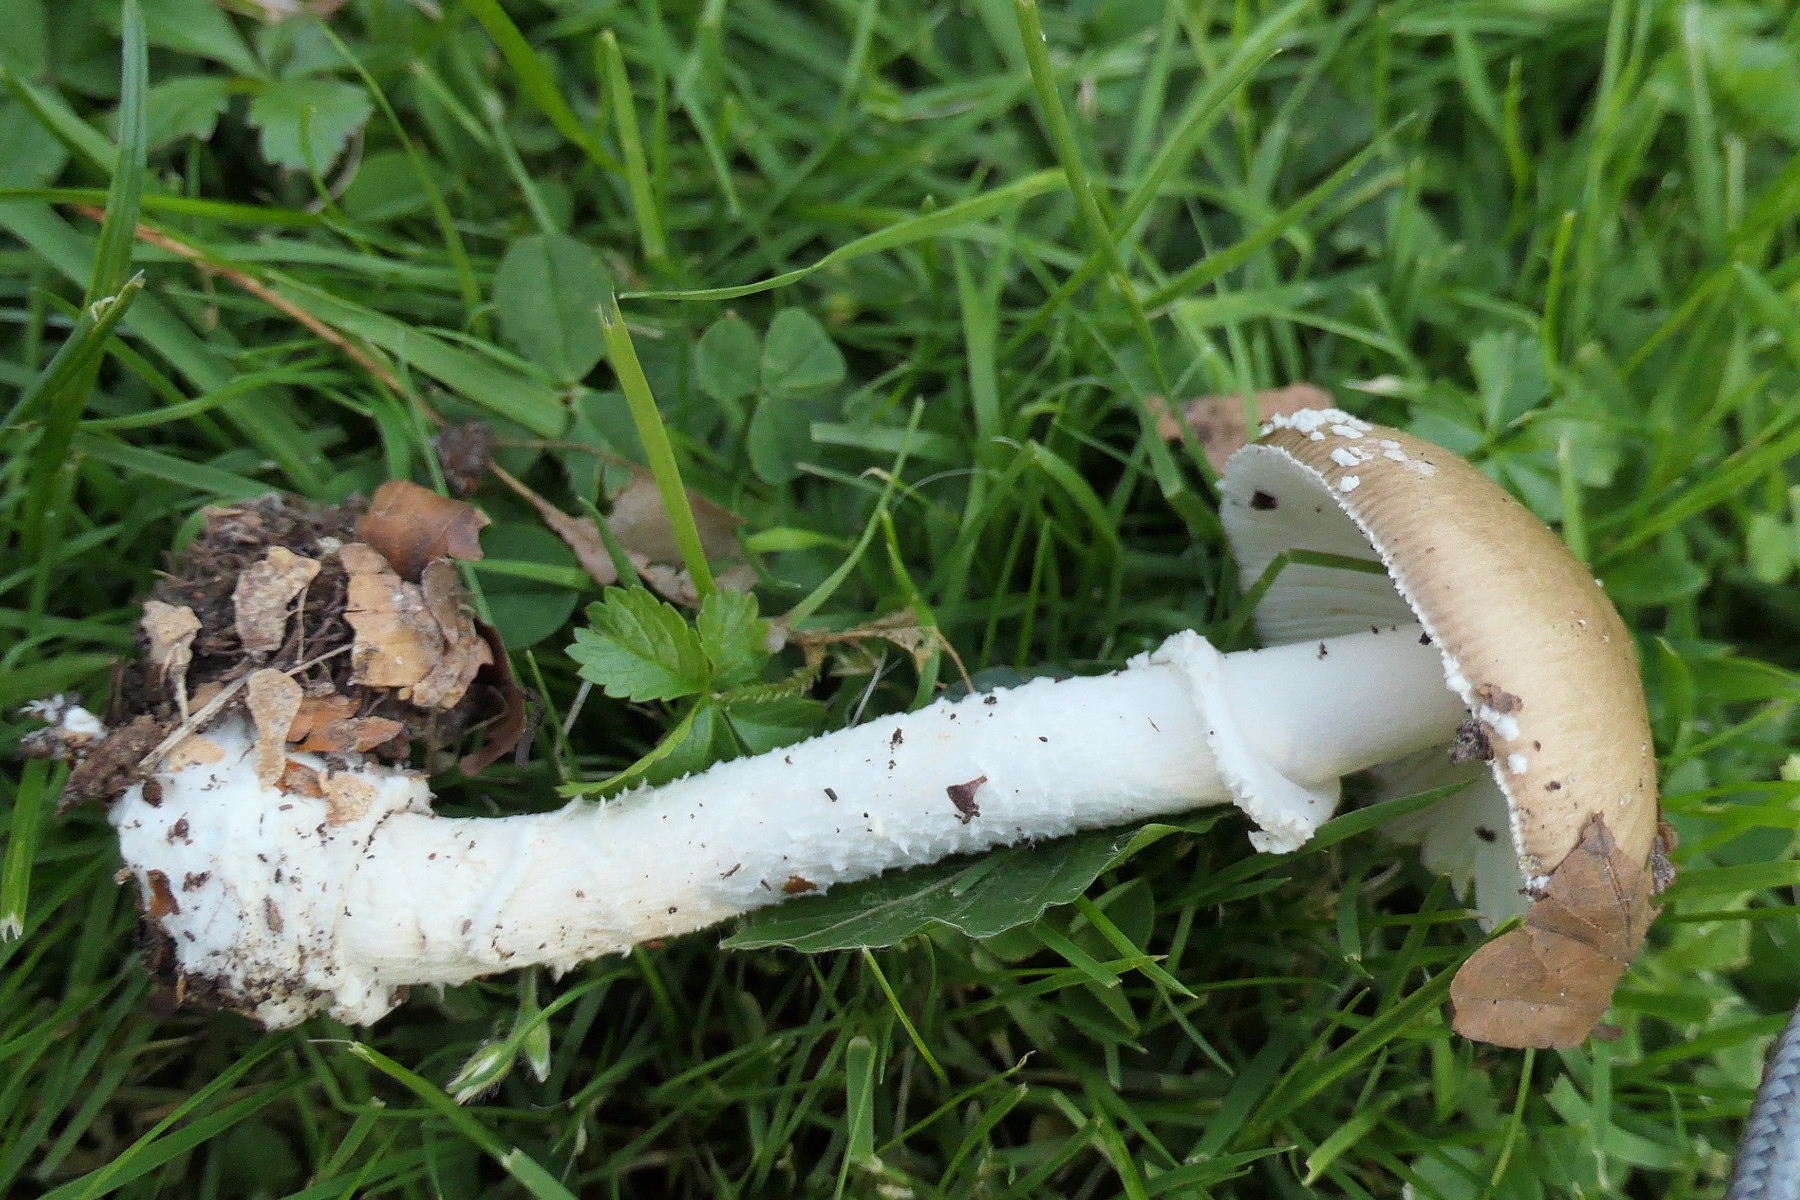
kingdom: Fungi
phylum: Basidiomycota
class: Agaricomycetes
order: Agaricales
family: Amanitaceae
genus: Amanita
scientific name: Amanita pantherina
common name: panter-fluesvamp
